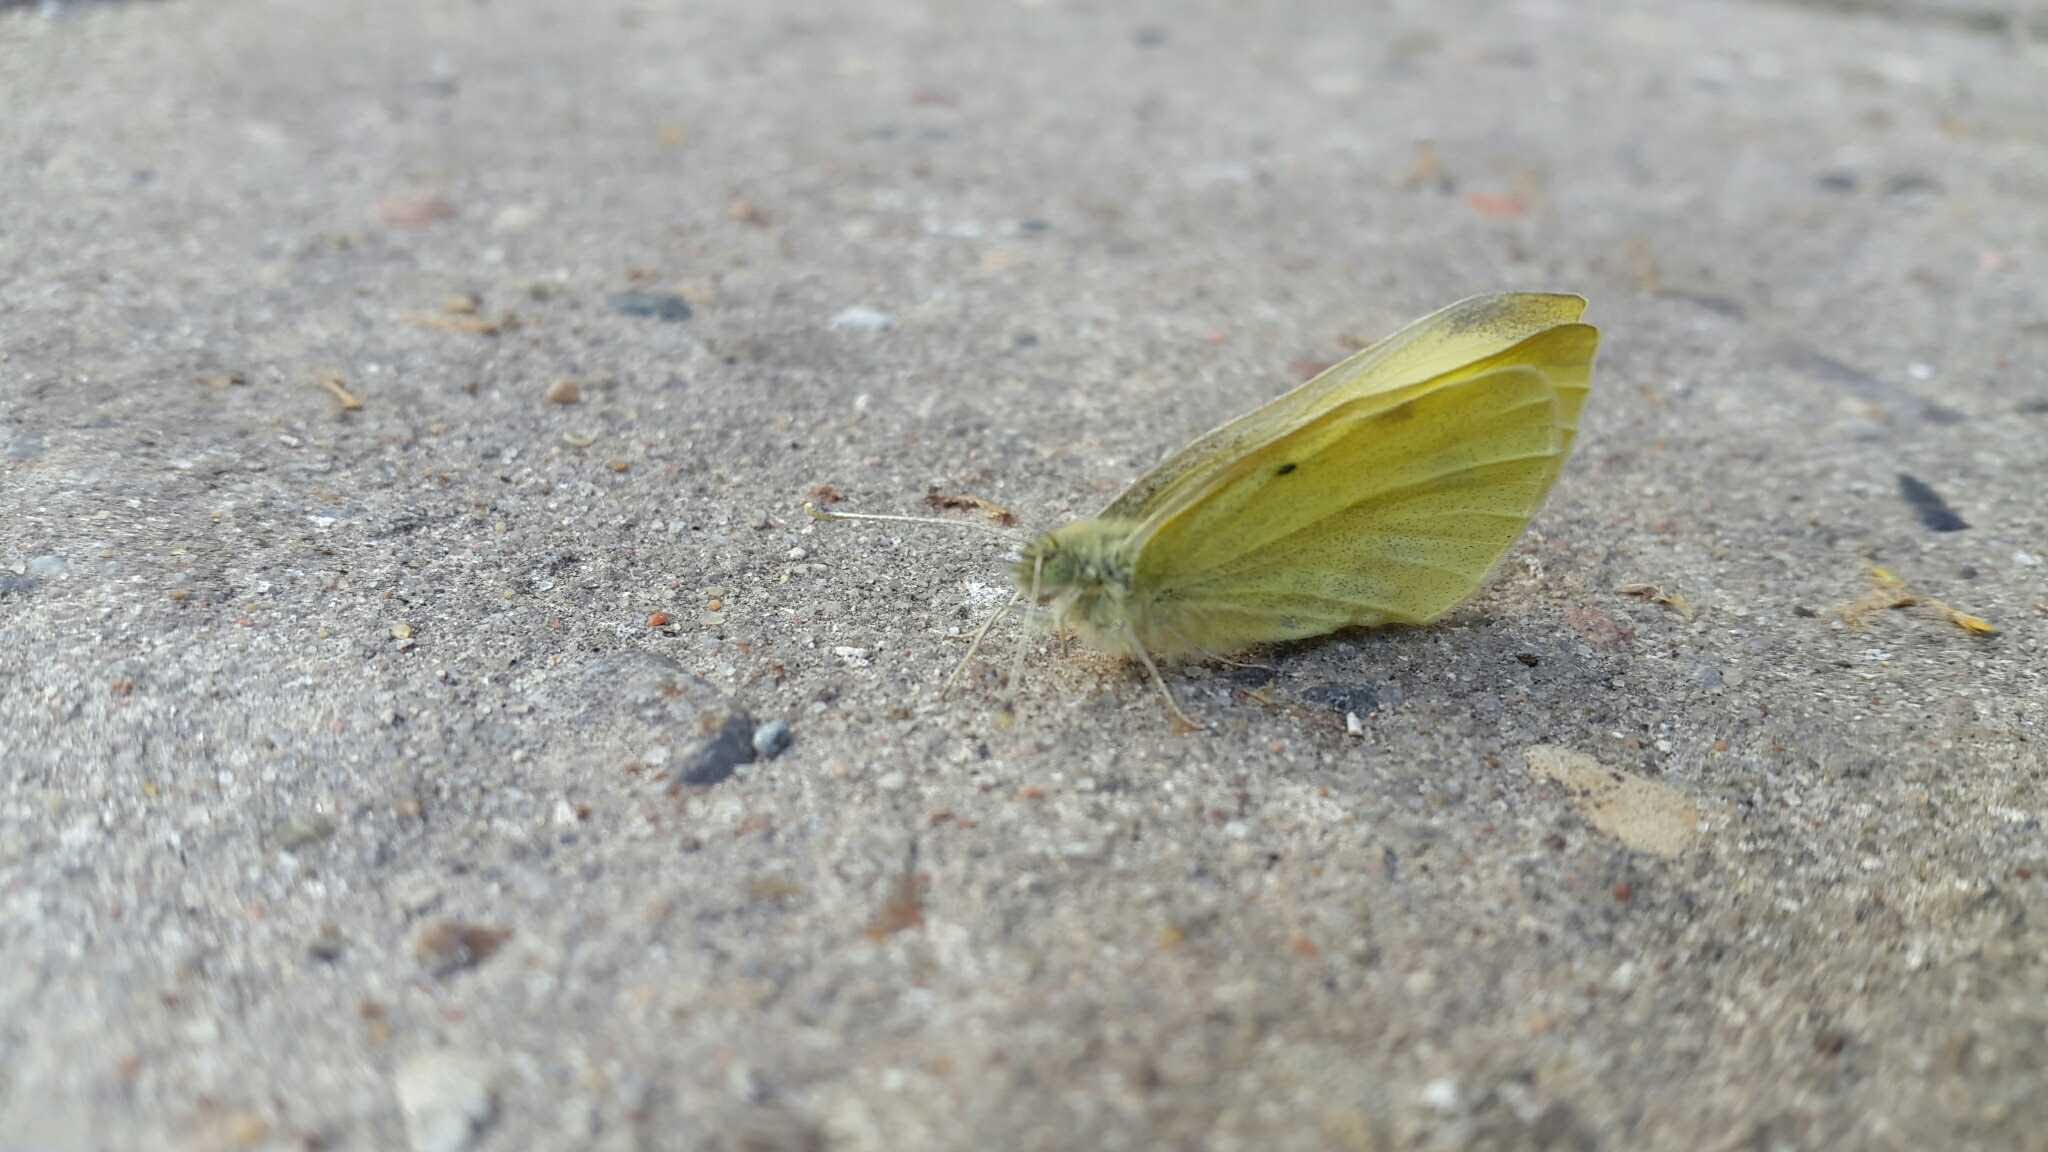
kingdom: Animalia
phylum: Arthropoda
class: Insecta
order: Lepidoptera
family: Pieridae
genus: Pieris
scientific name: Pieris rapae
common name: Lille kålsommerfugl
